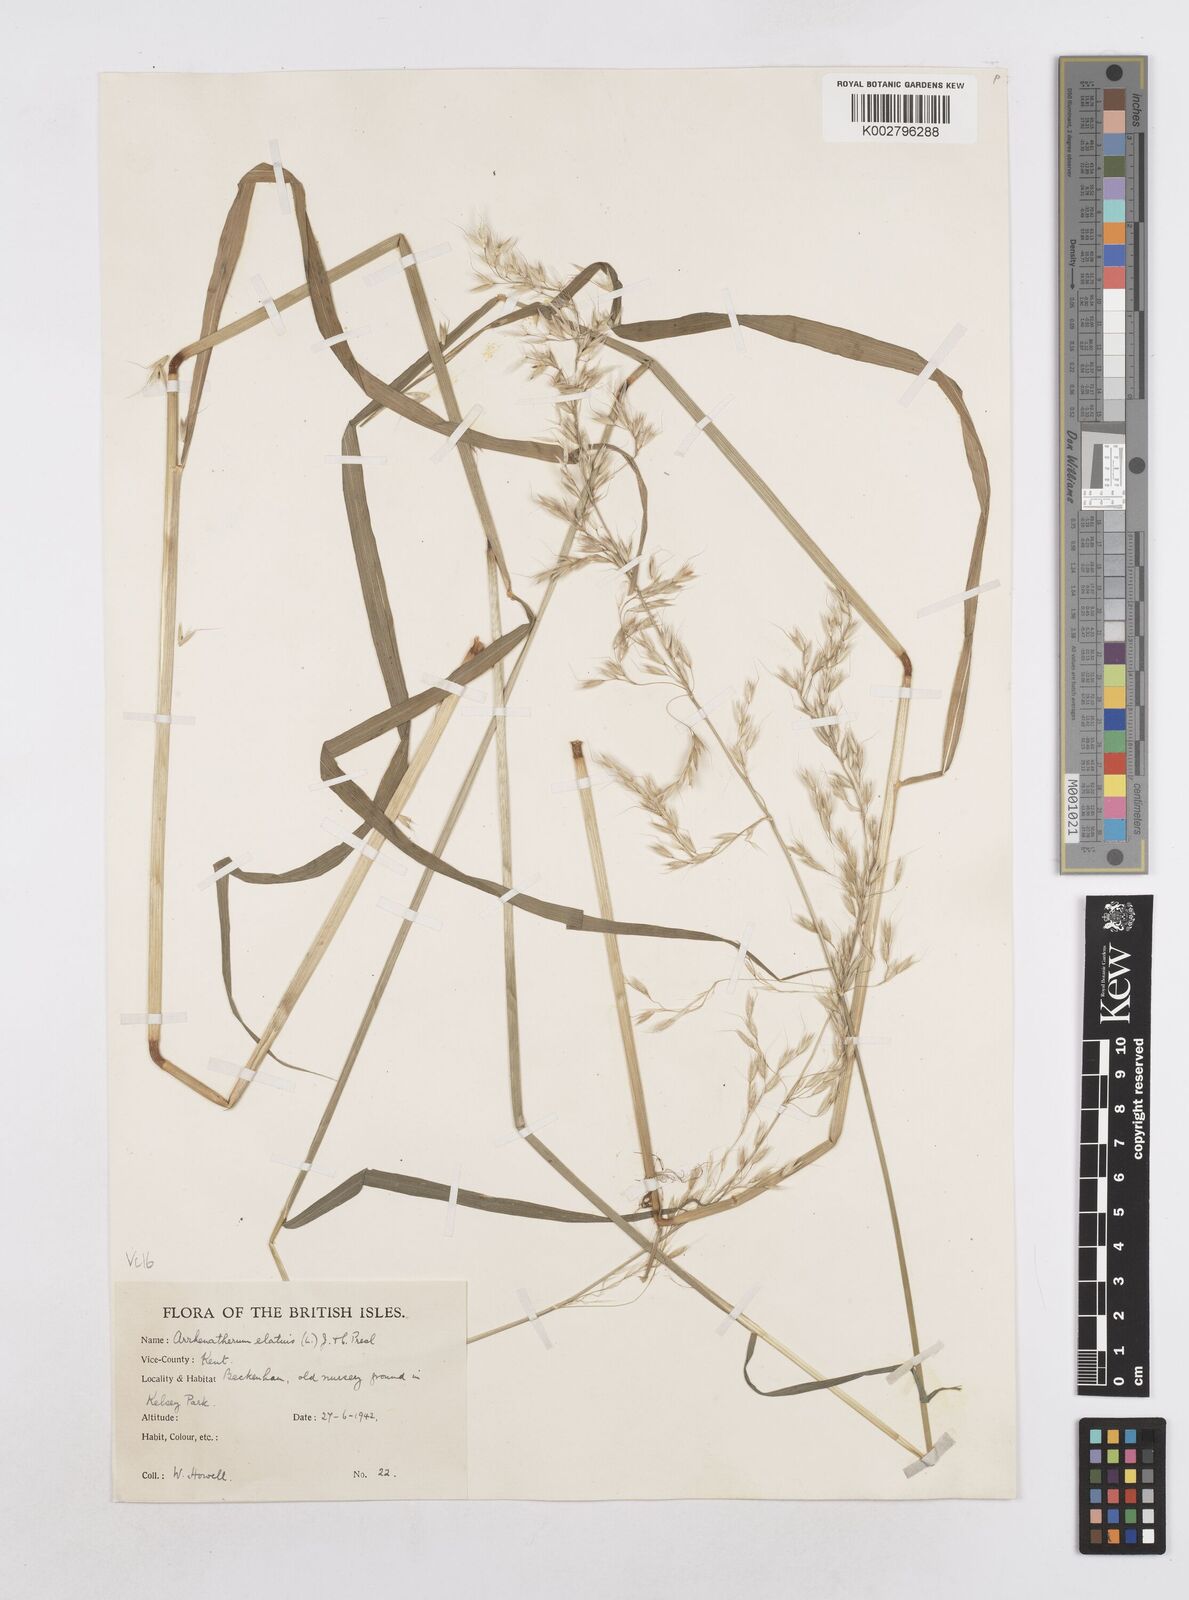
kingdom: Plantae
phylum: Tracheophyta
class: Liliopsida
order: Poales
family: Poaceae
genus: Arrhenatherum
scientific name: Arrhenatherum elatius
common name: Tall oatgrass
